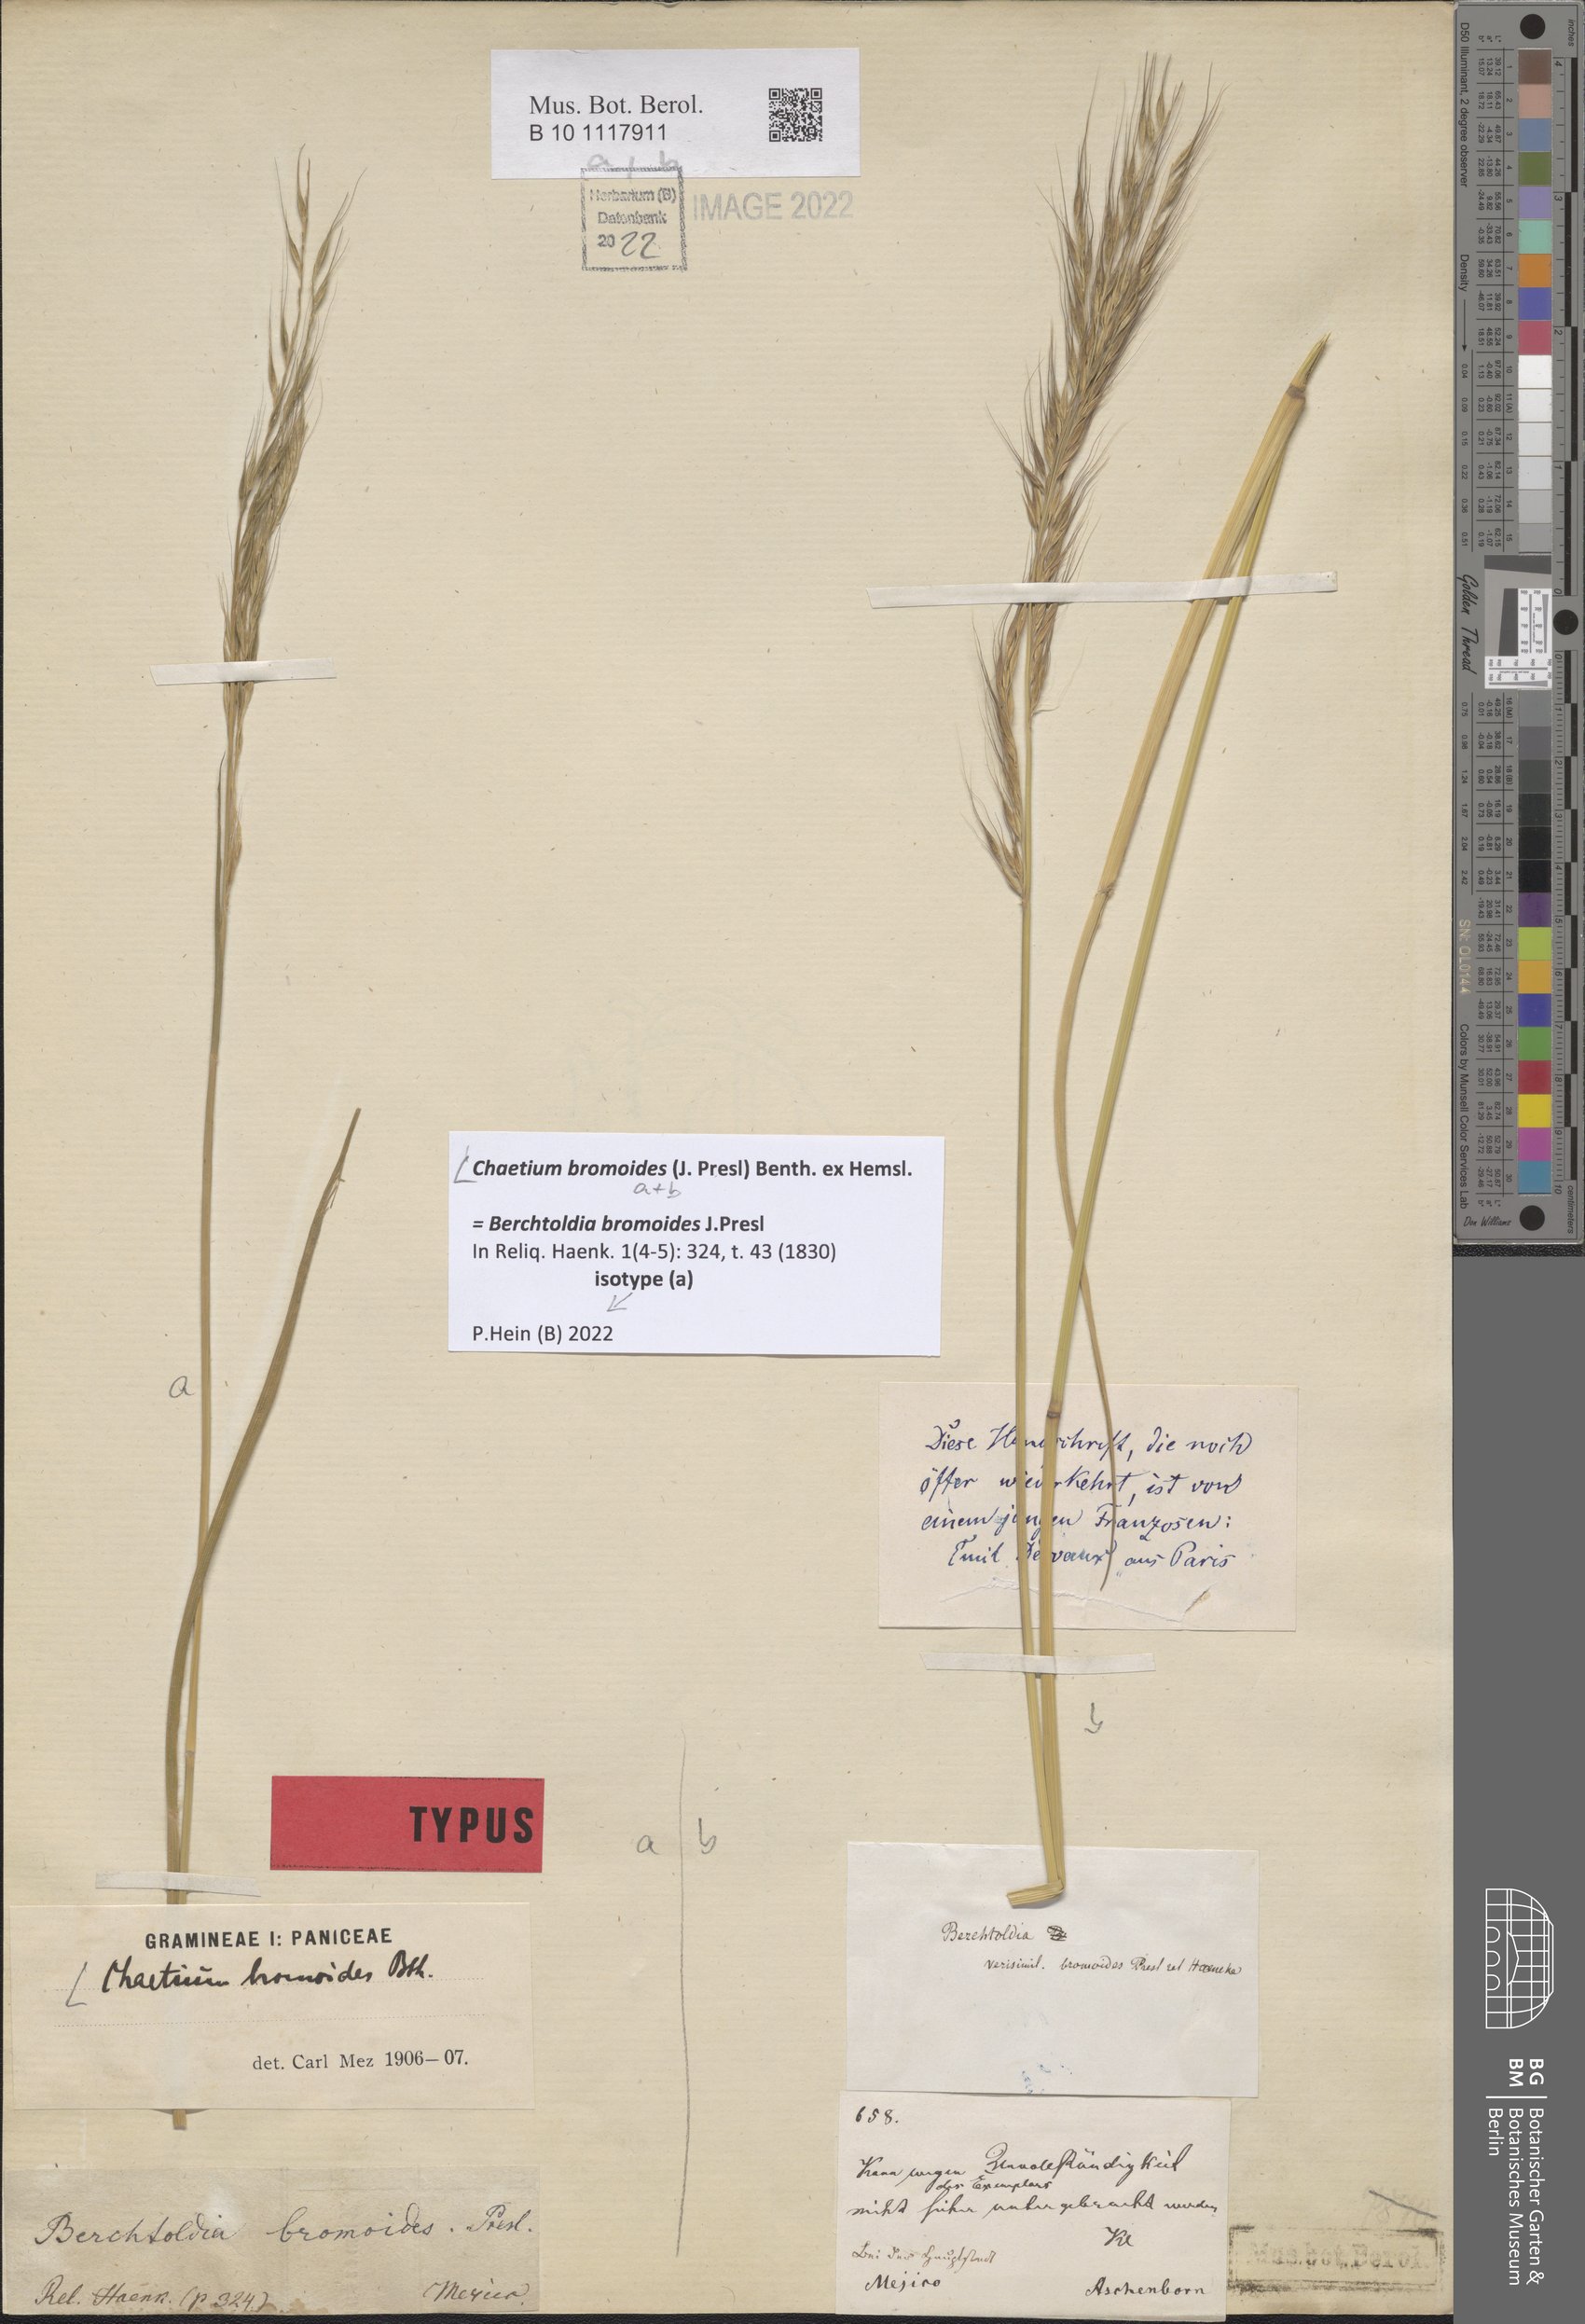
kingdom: Plantae
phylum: Tracheophyta
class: Liliopsida
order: Poales
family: Poaceae
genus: Chaetium
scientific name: Chaetium bromoides
